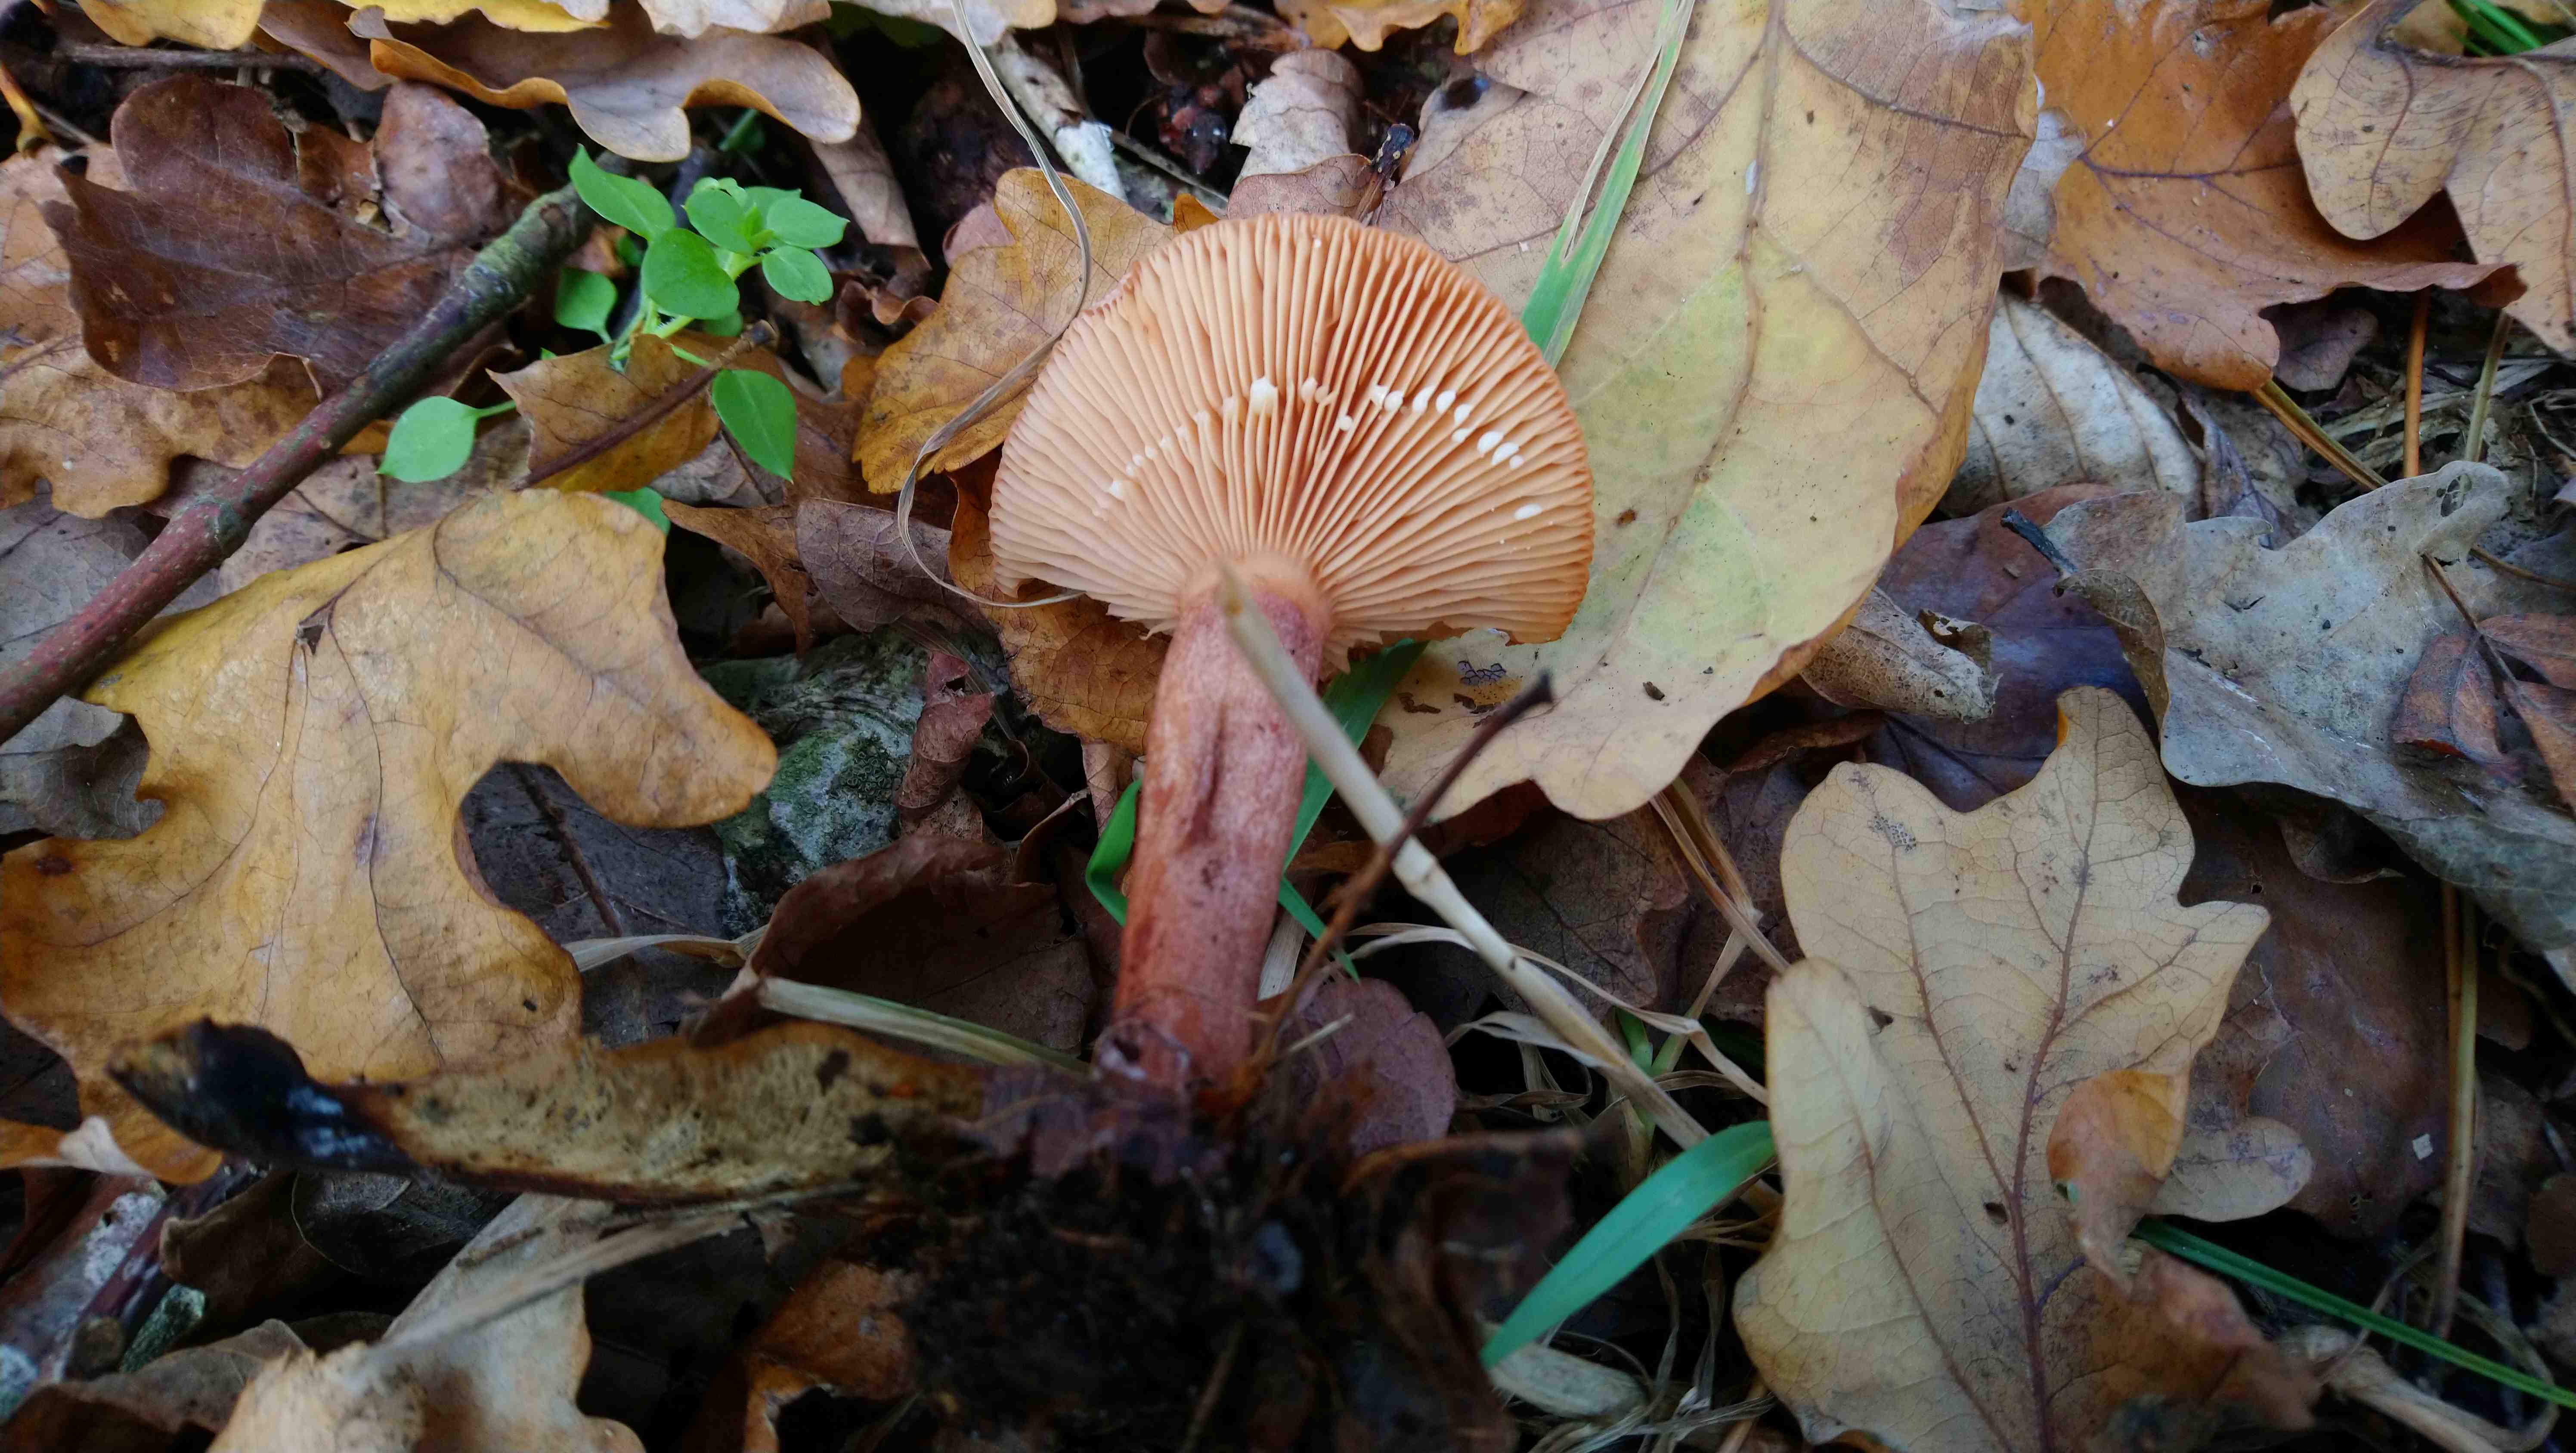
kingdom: Fungi
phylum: Basidiomycota
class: Agaricomycetes
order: Russulales
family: Russulaceae
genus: Lactarius
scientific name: Lactarius quietus
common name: ege-mælkehat
